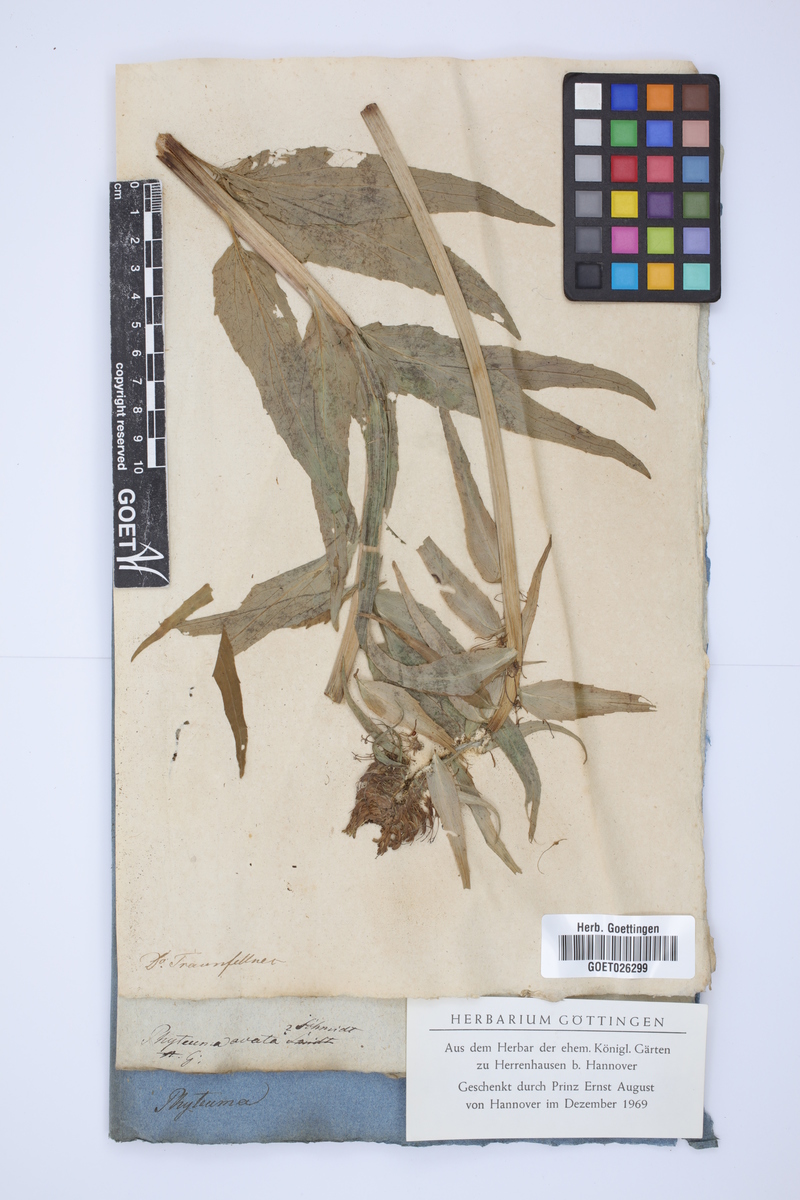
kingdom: Plantae
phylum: Tracheophyta
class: Magnoliopsida
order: Asterales
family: Campanulaceae
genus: Phyteuma
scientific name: Phyteuma nigrum
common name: Black rampion
